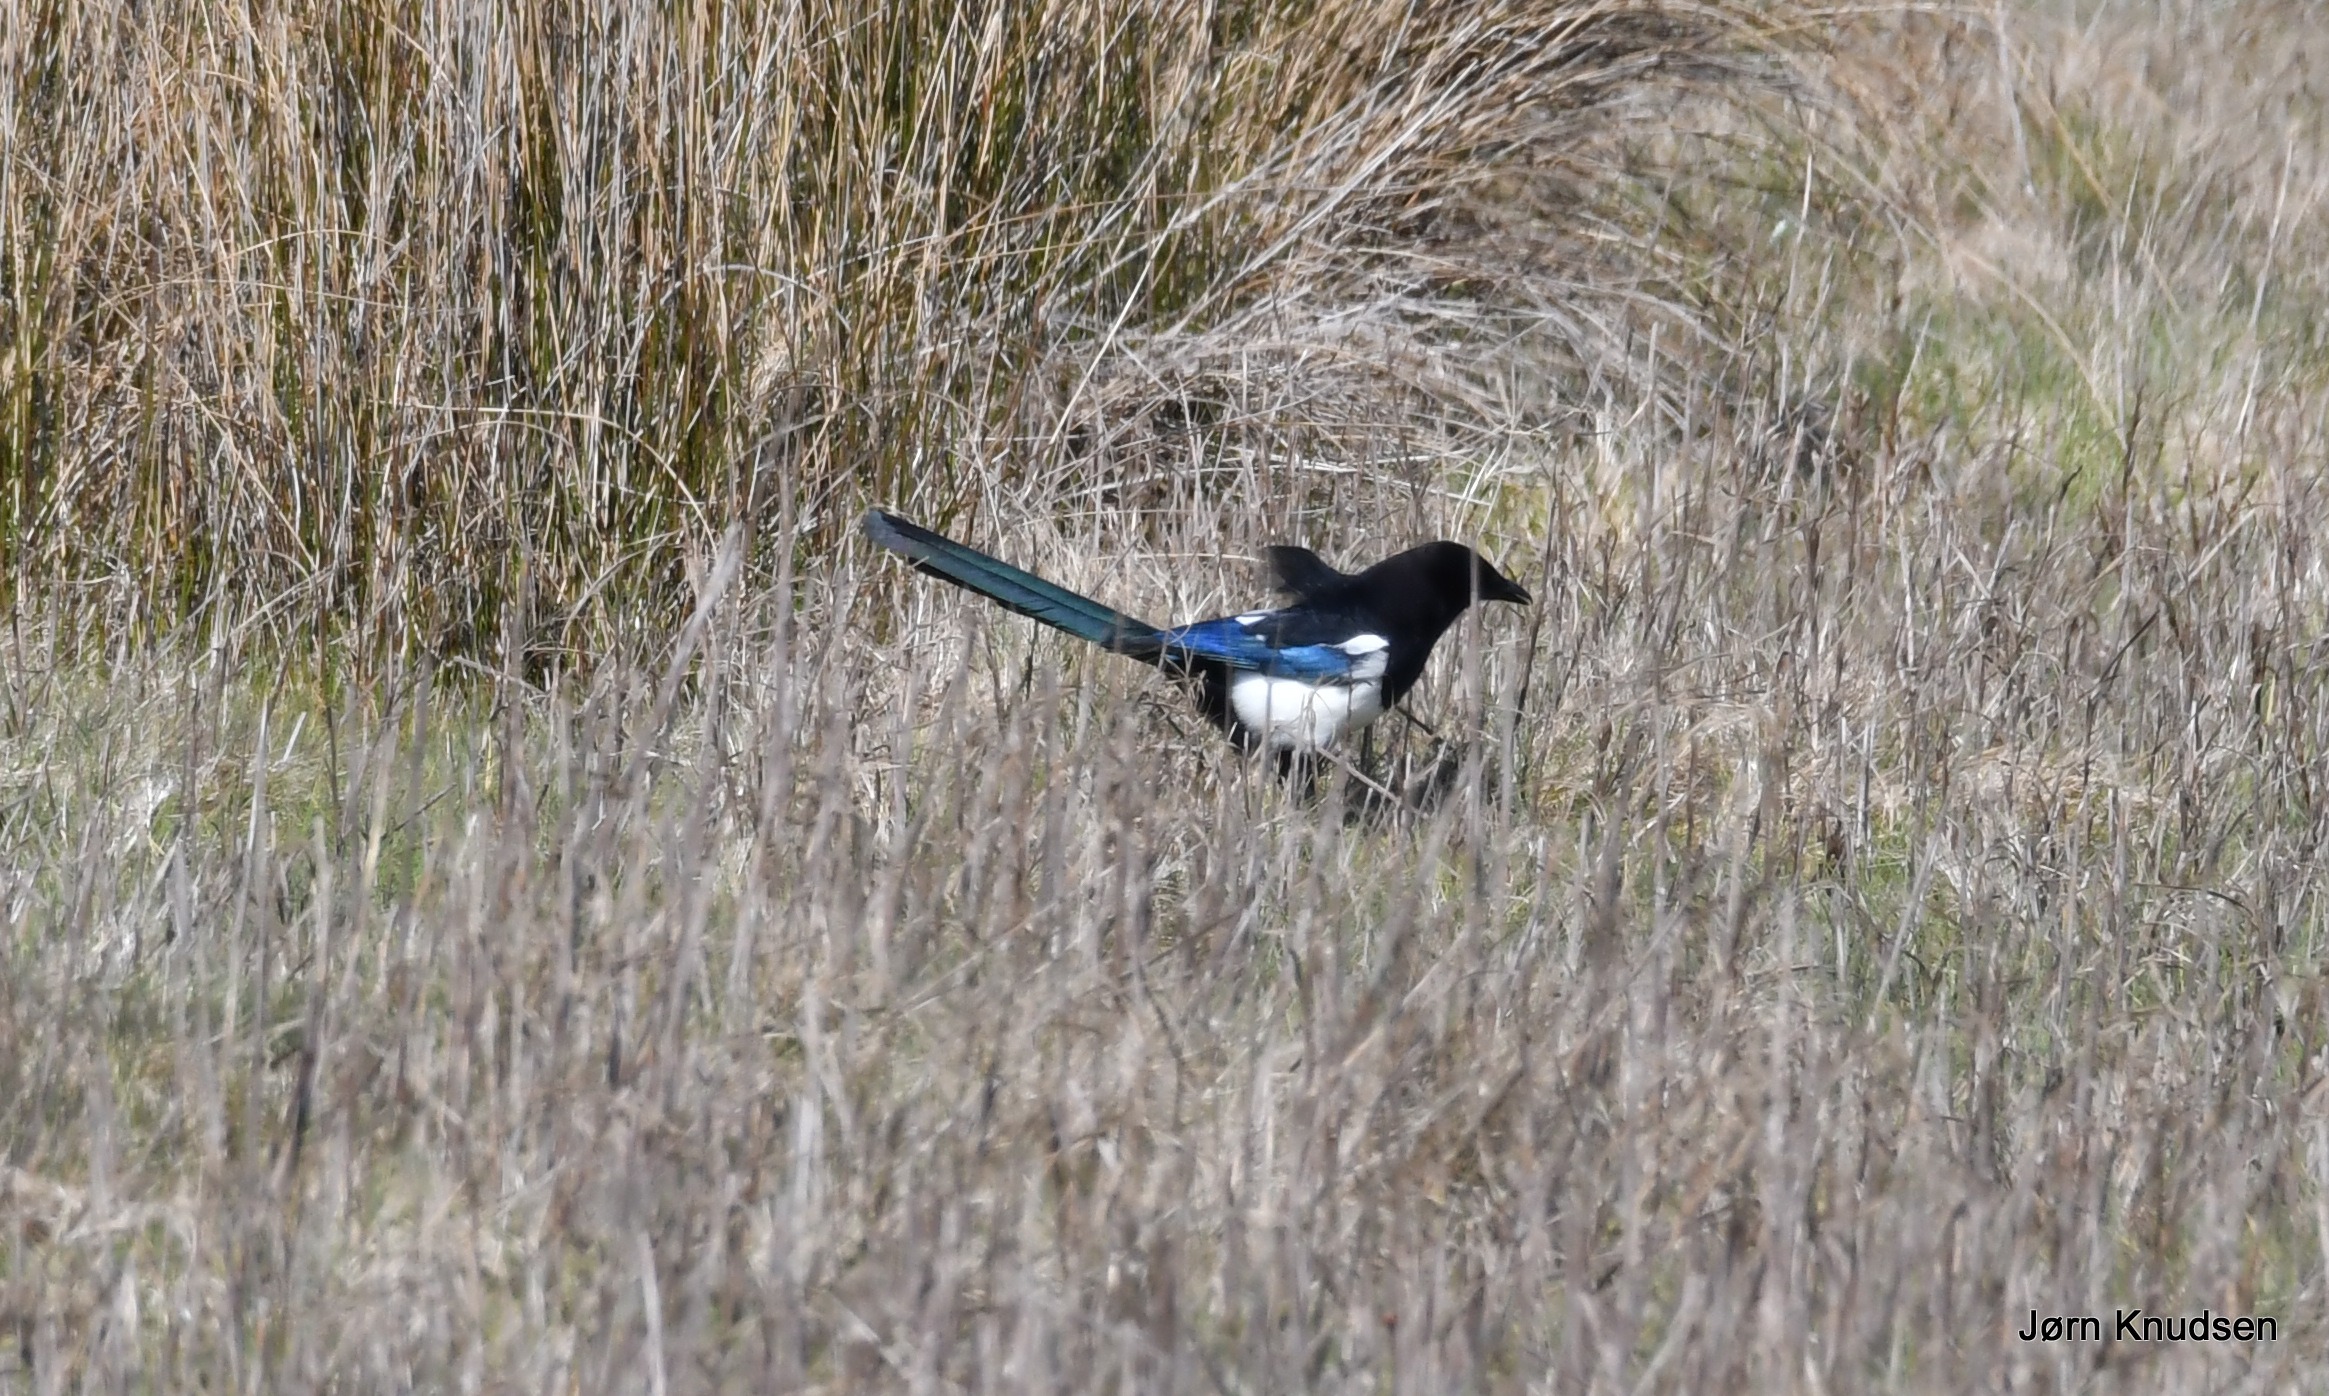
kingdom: Animalia
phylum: Chordata
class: Aves
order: Passeriformes
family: Corvidae
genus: Pica
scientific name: Pica pica
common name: Husskade
